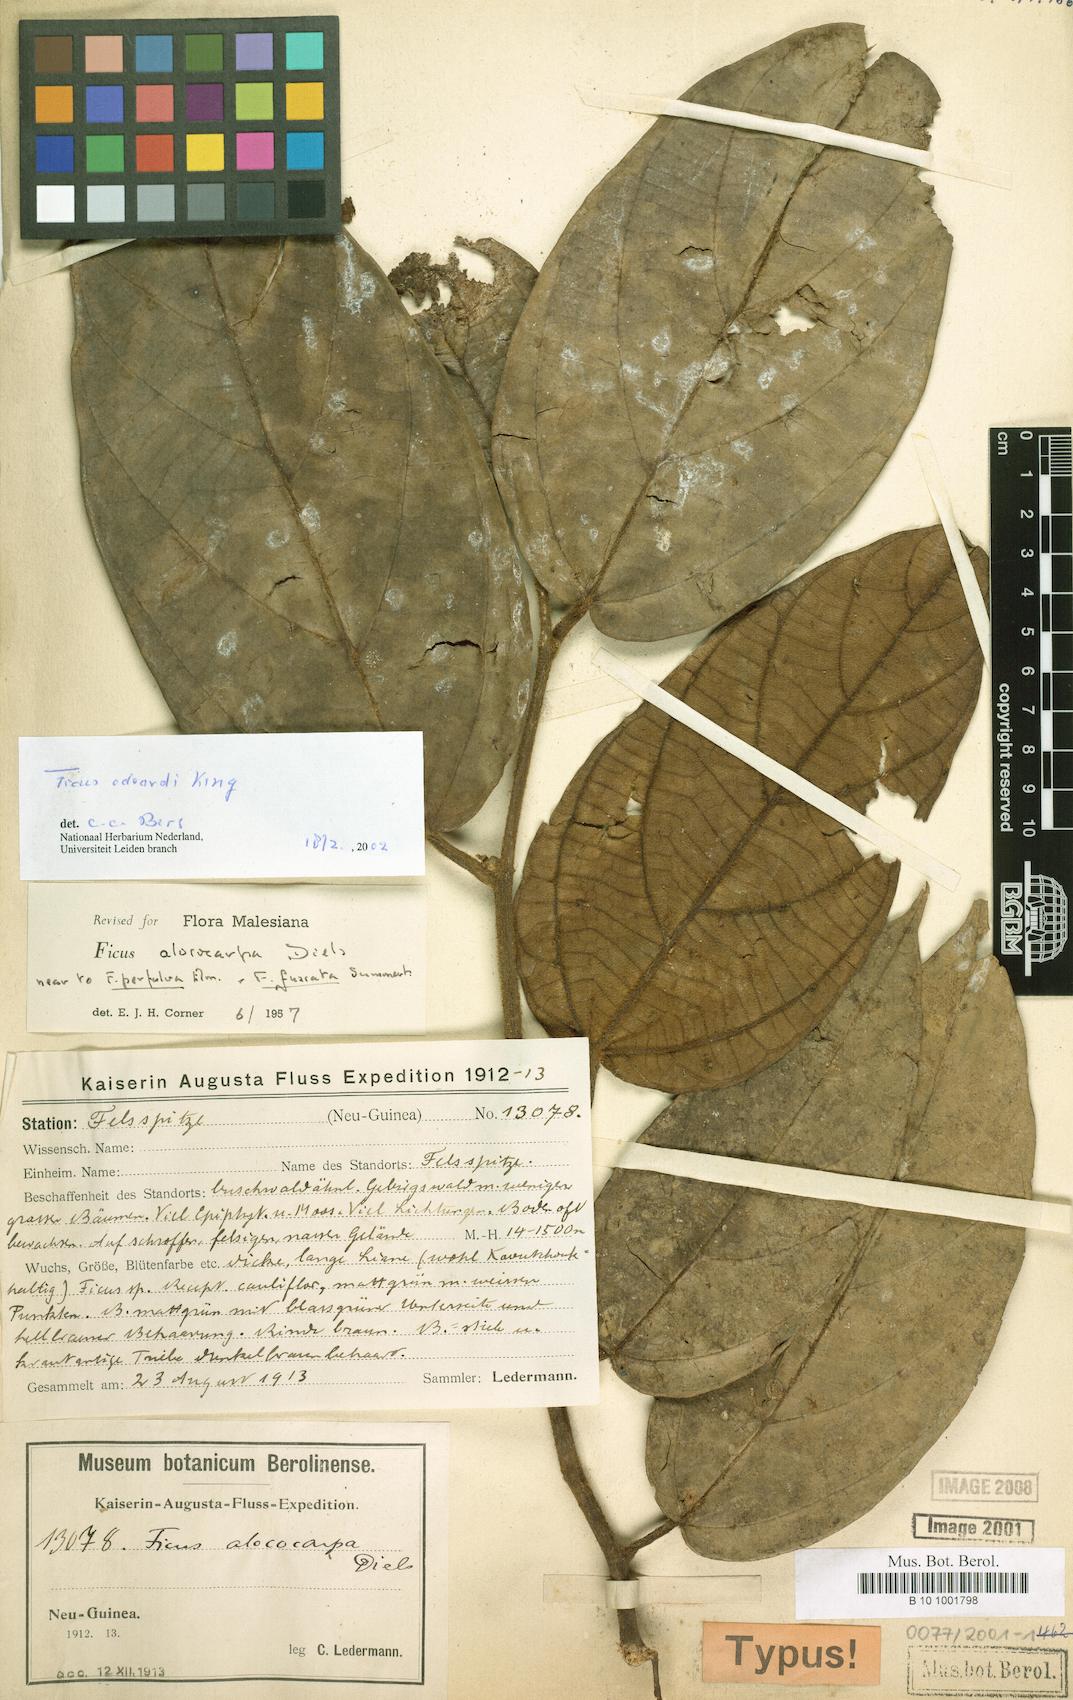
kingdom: Plantae
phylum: Tracheophyta
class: Magnoliopsida
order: Rosales
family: Moraceae
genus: Ficus
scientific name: Ficus odoardi
